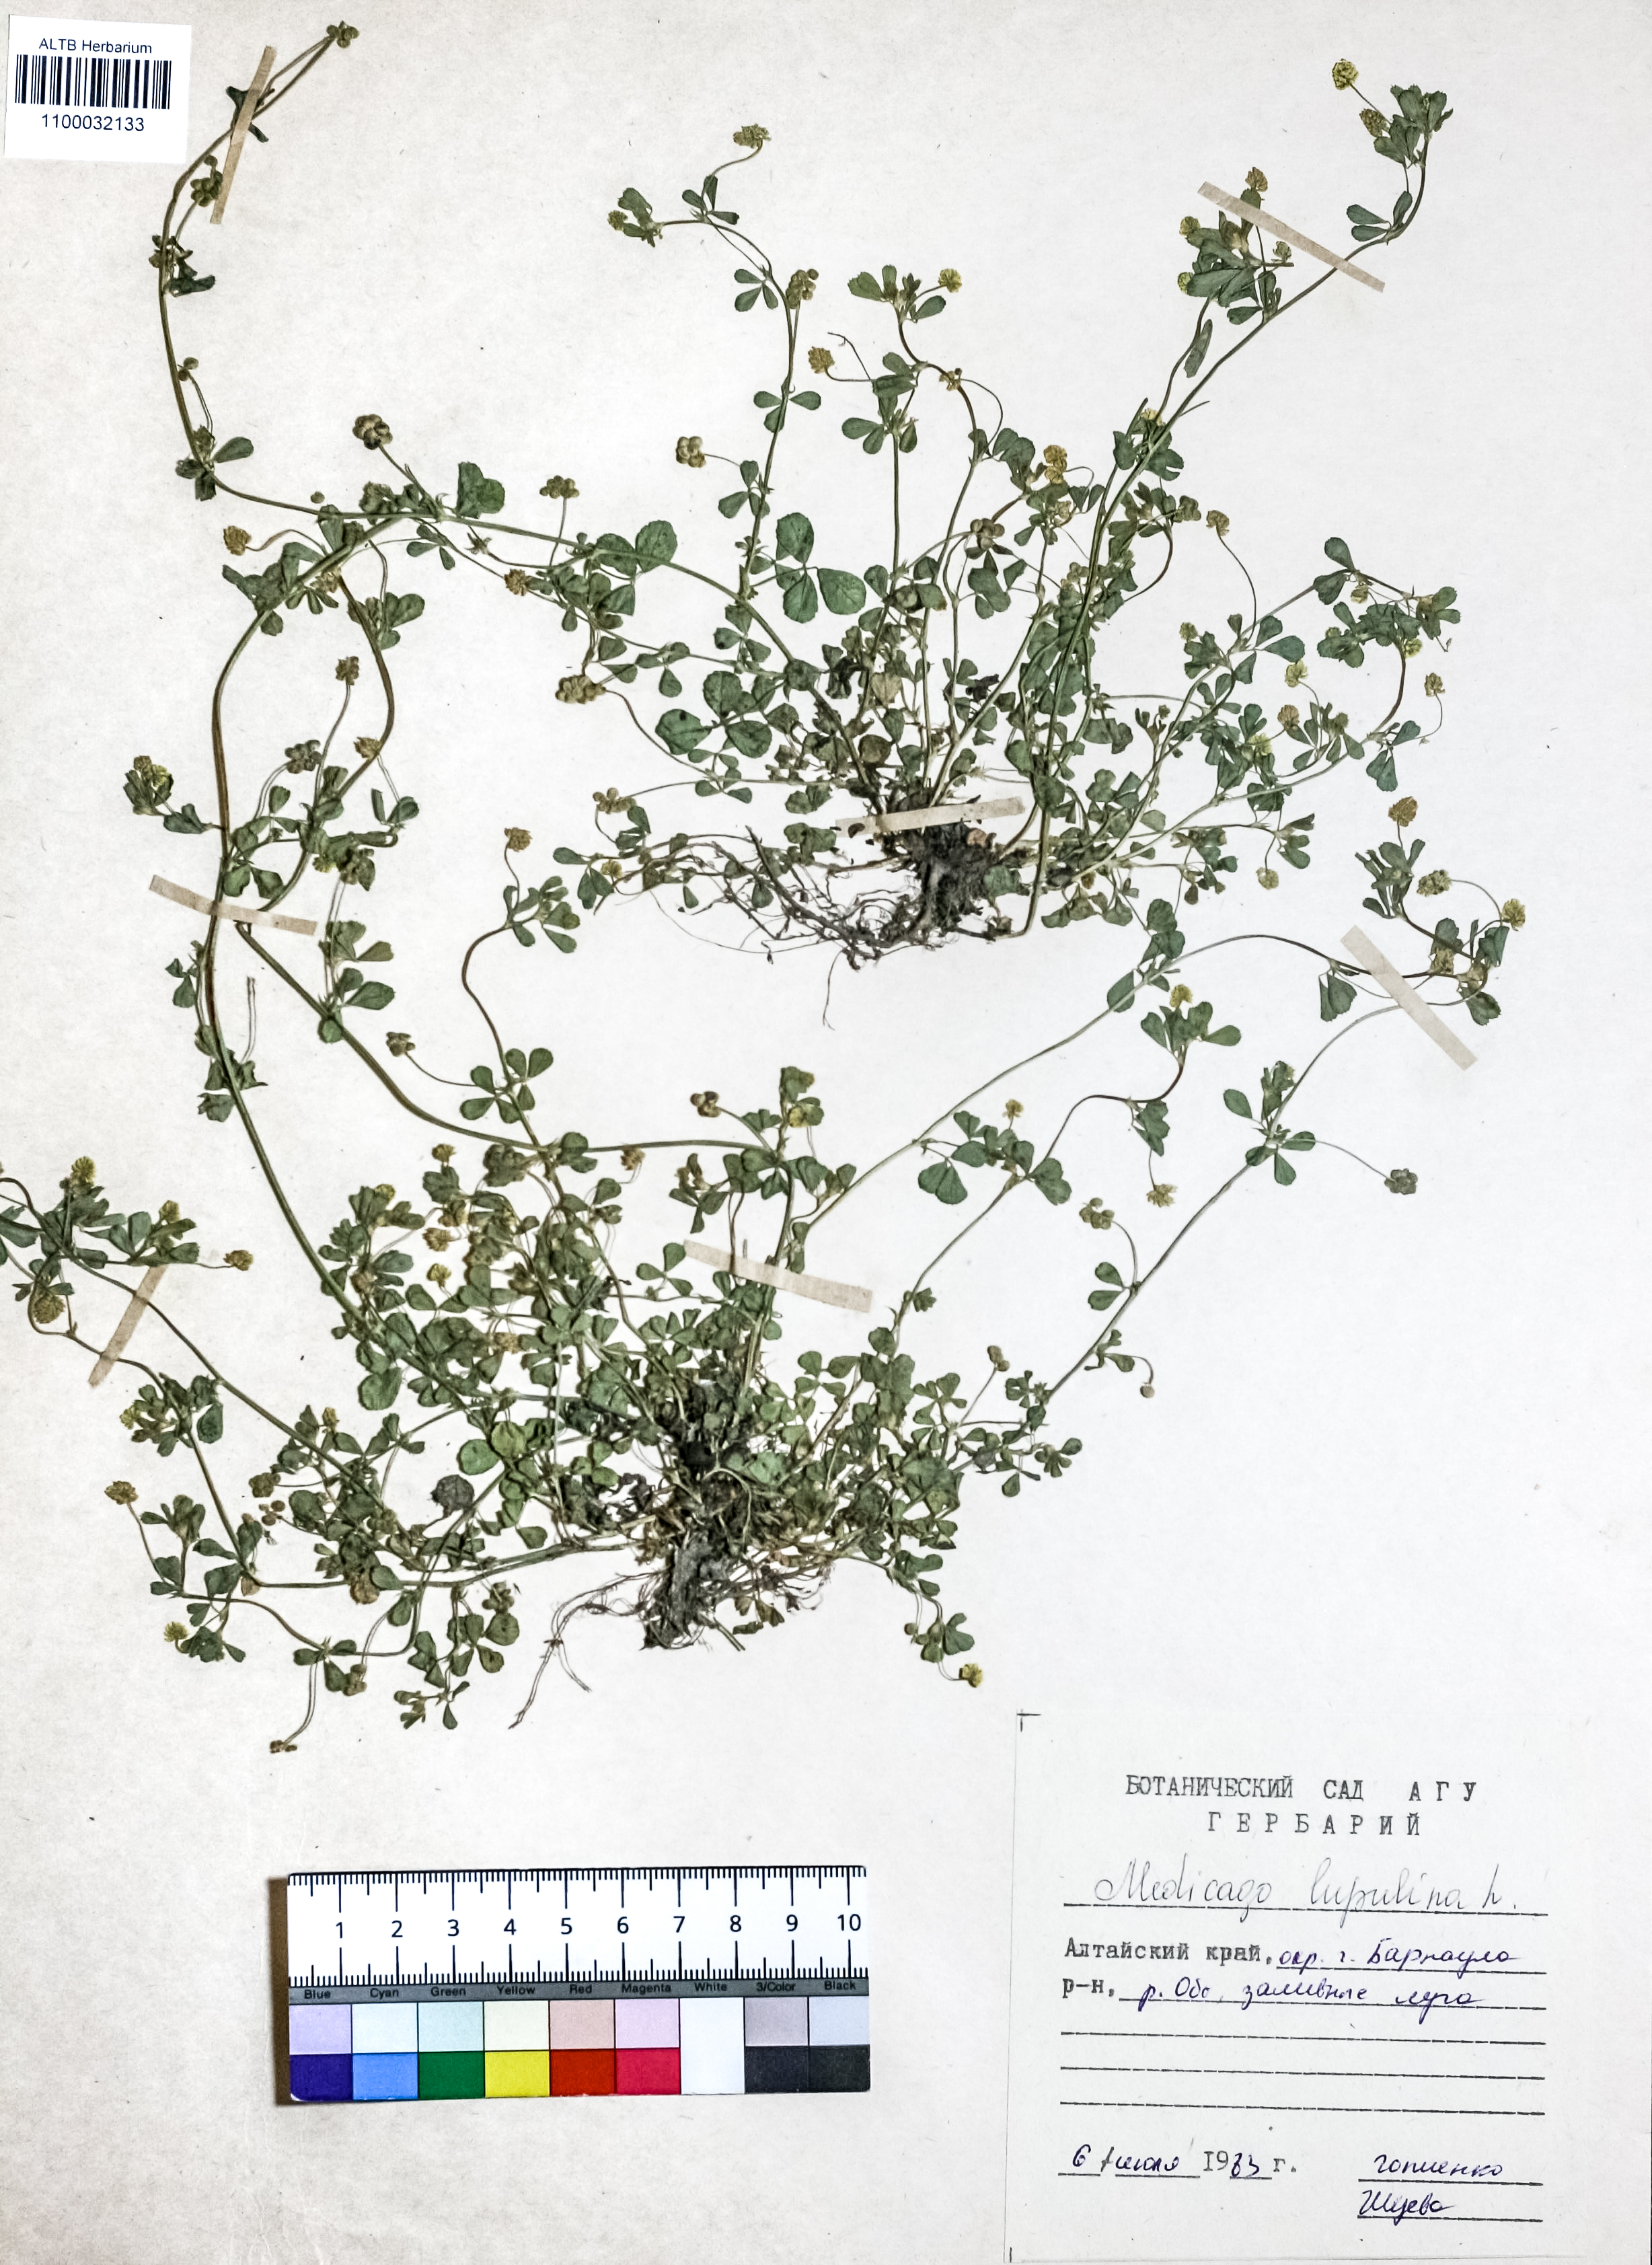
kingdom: Plantae
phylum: Tracheophyta
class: Magnoliopsida
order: Fabales
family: Fabaceae
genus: Medicago
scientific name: Medicago lupulina
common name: Black medick
